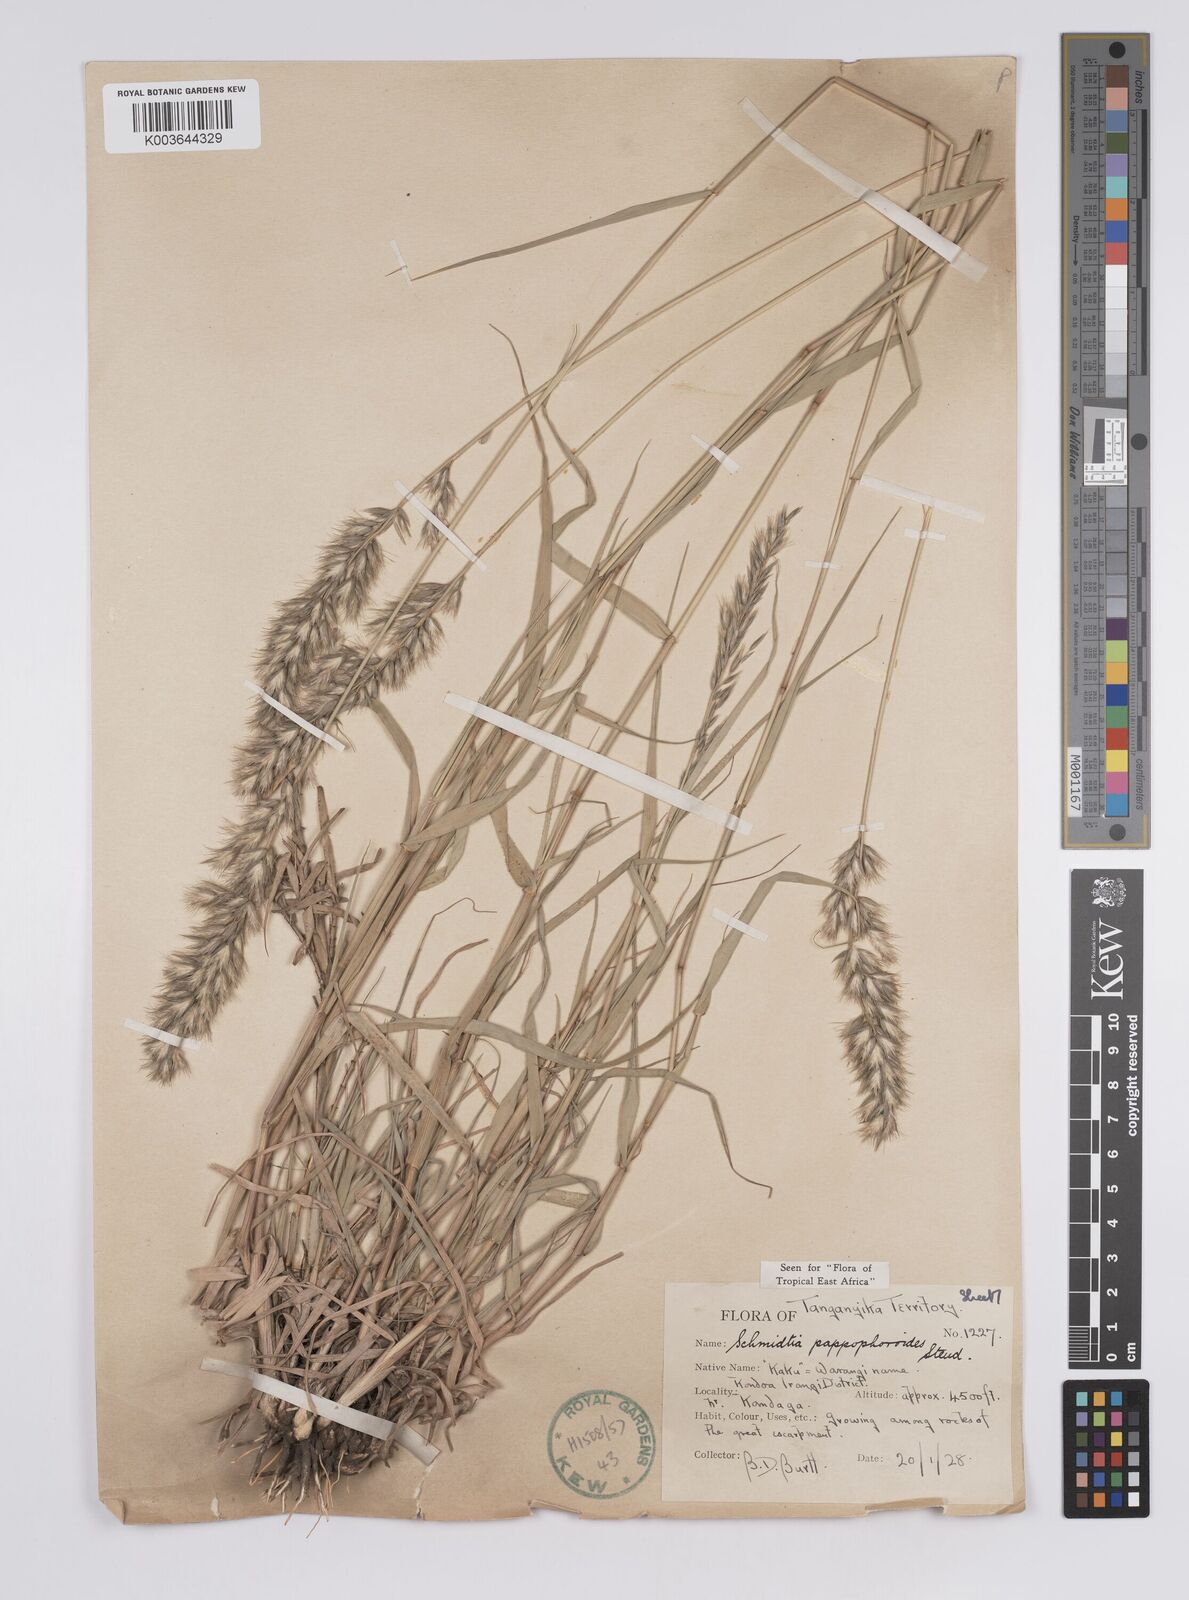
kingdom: Plantae
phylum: Tracheophyta
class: Liliopsida
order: Poales
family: Poaceae
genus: Schmidtia
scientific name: Schmidtia pappophoroides
